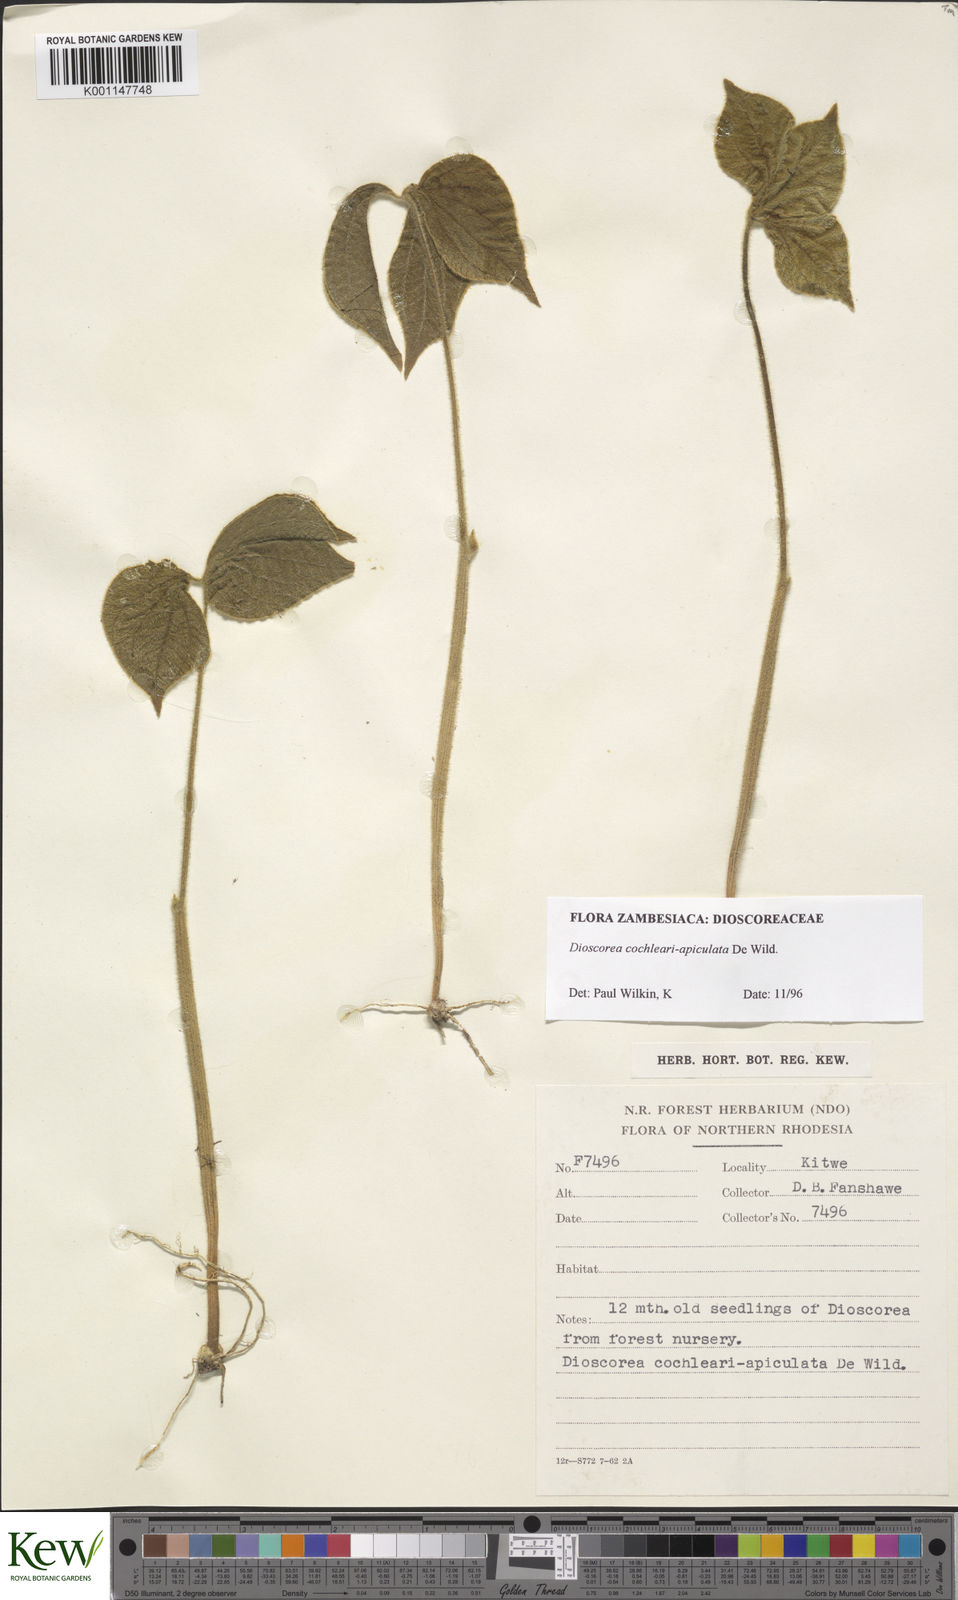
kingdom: Plantae
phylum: Tracheophyta
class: Liliopsida
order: Dioscoreales
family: Dioscoreaceae
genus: Dioscorea
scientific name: Dioscorea cochleariapiculata
